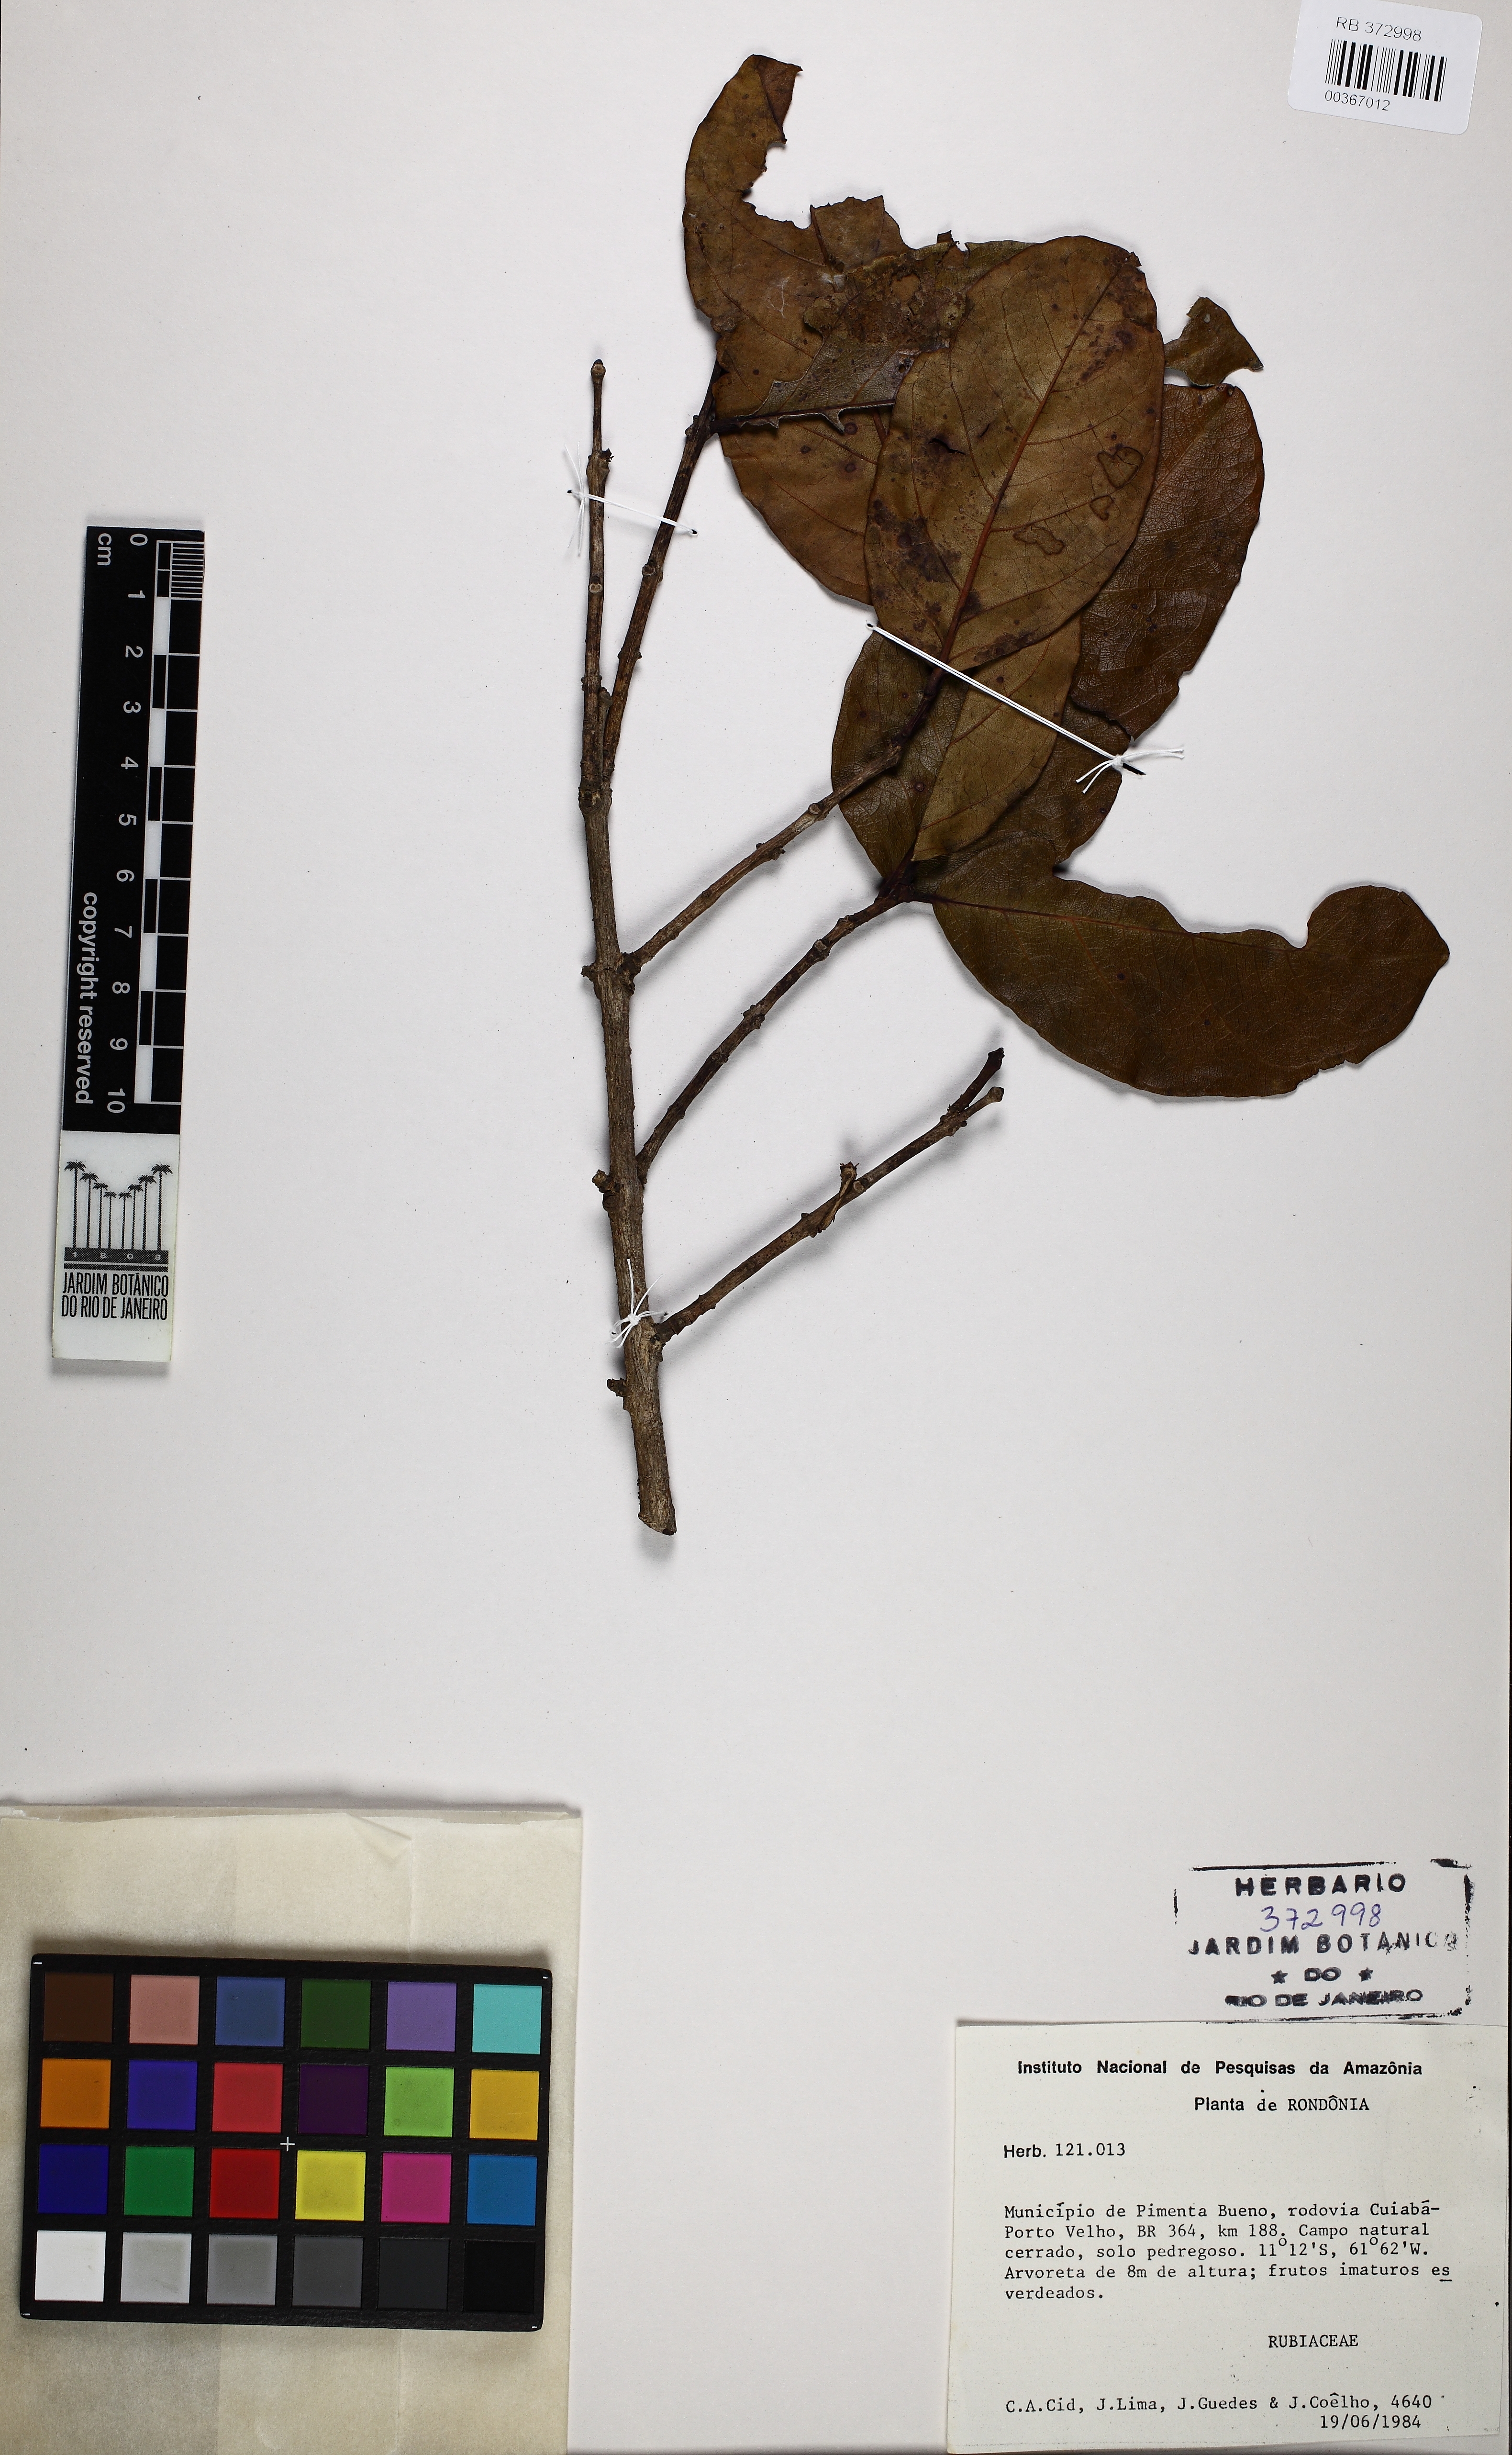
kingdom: Plantae
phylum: Tracheophyta
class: Magnoliopsida
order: Gentianales
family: Rubiaceae
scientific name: Rubiaceae
